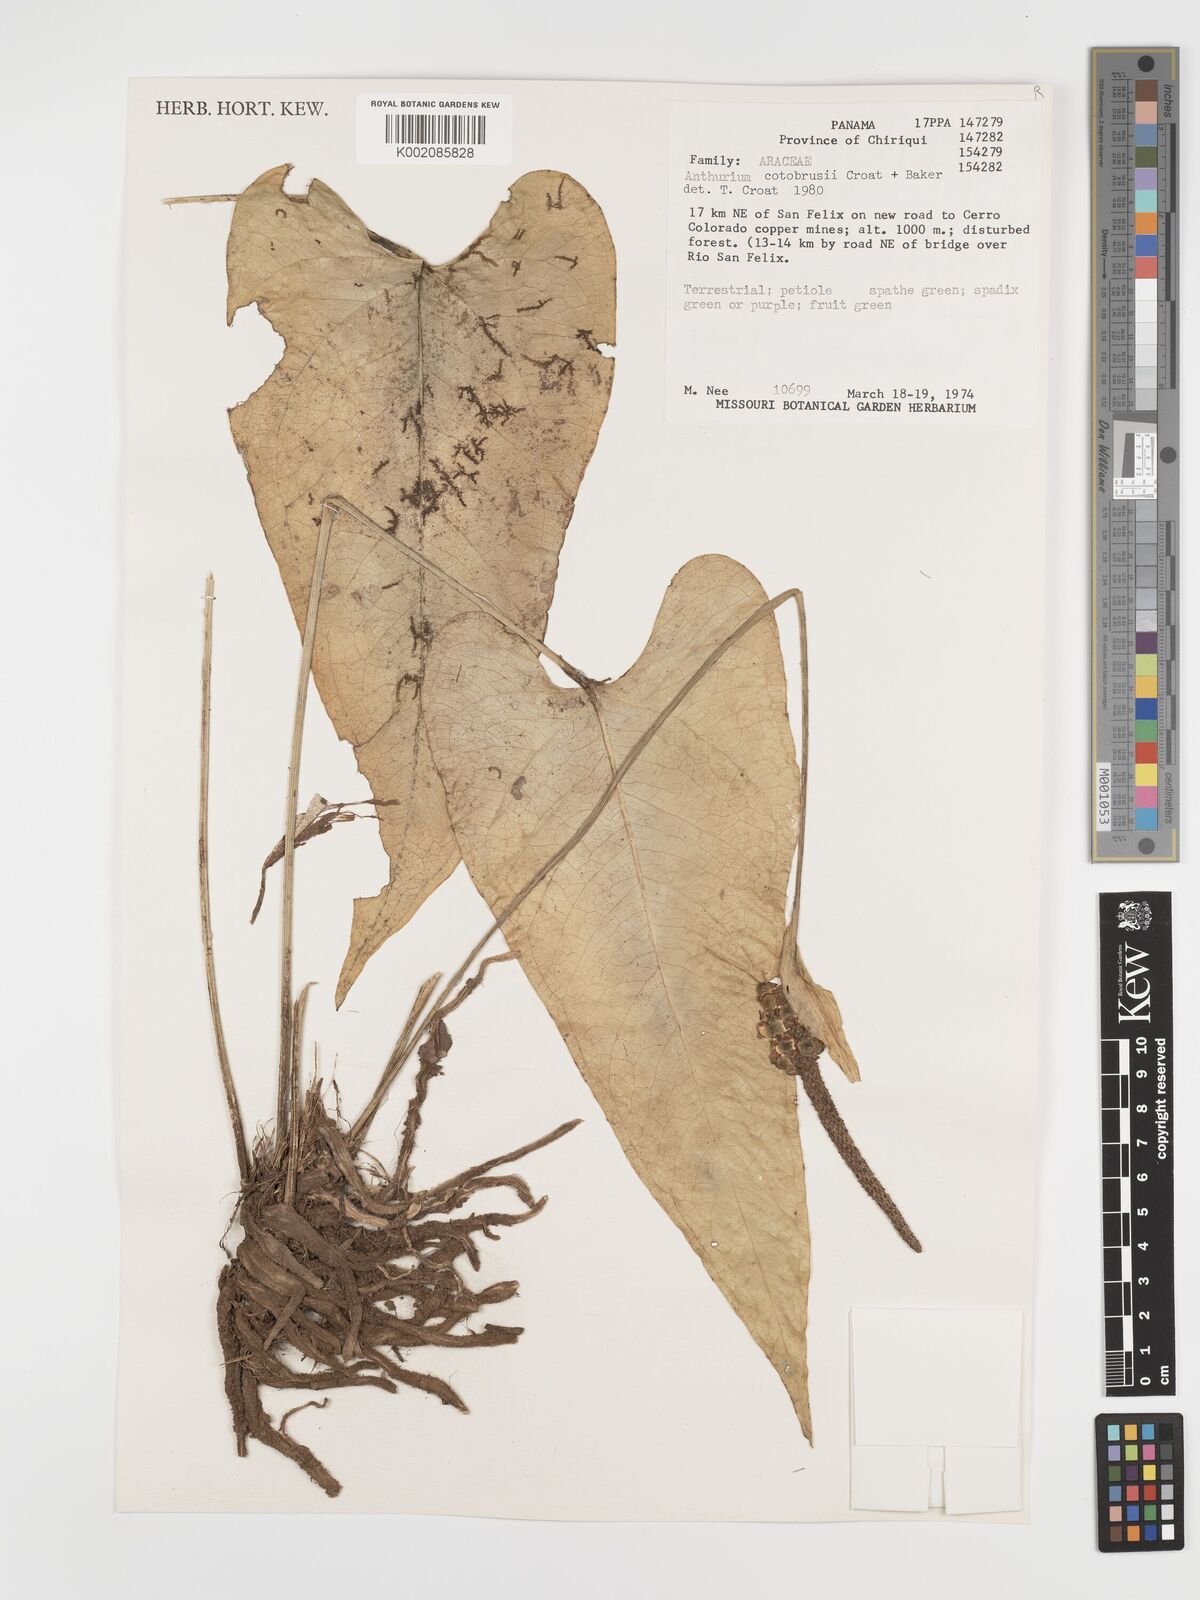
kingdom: Plantae
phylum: Tracheophyta
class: Liliopsida
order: Alismatales
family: Araceae
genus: Anthurium
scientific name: Anthurium cotobrusii
